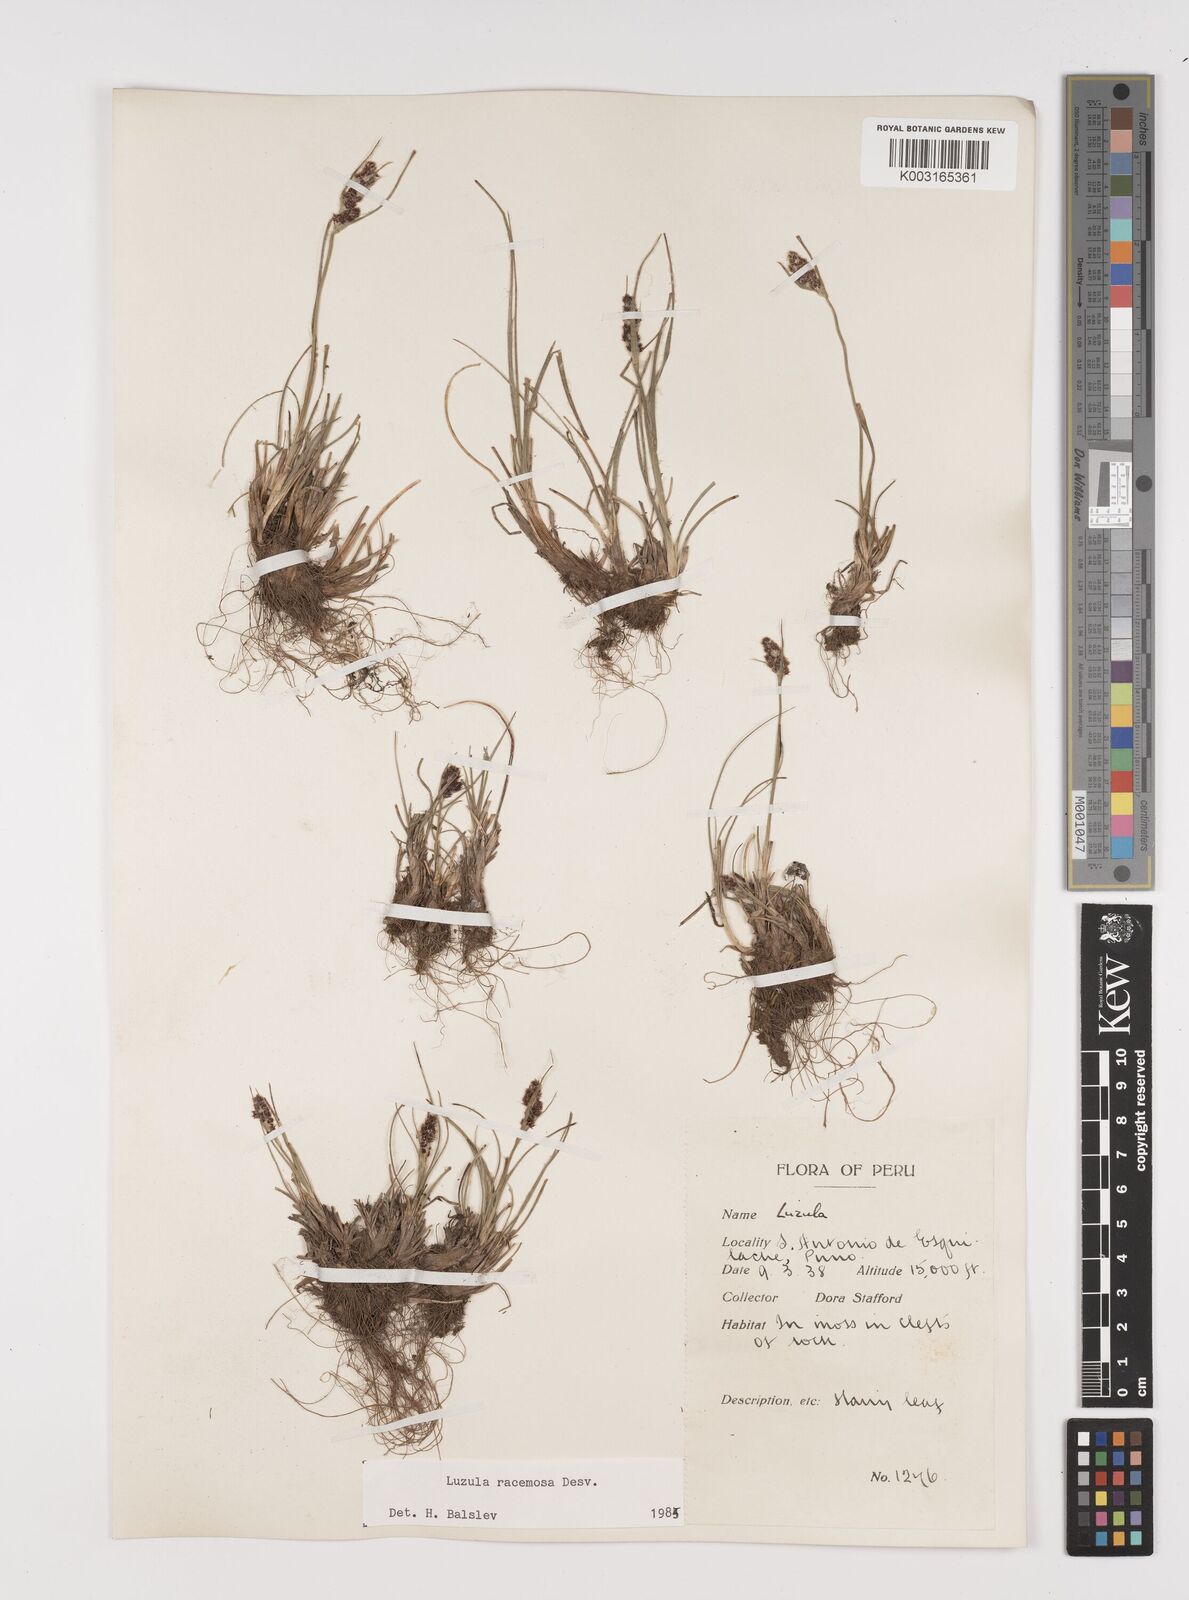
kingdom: Plantae
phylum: Tracheophyta
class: Liliopsida
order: Poales
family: Juncaceae
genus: Luzula
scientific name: Luzula racemosa
